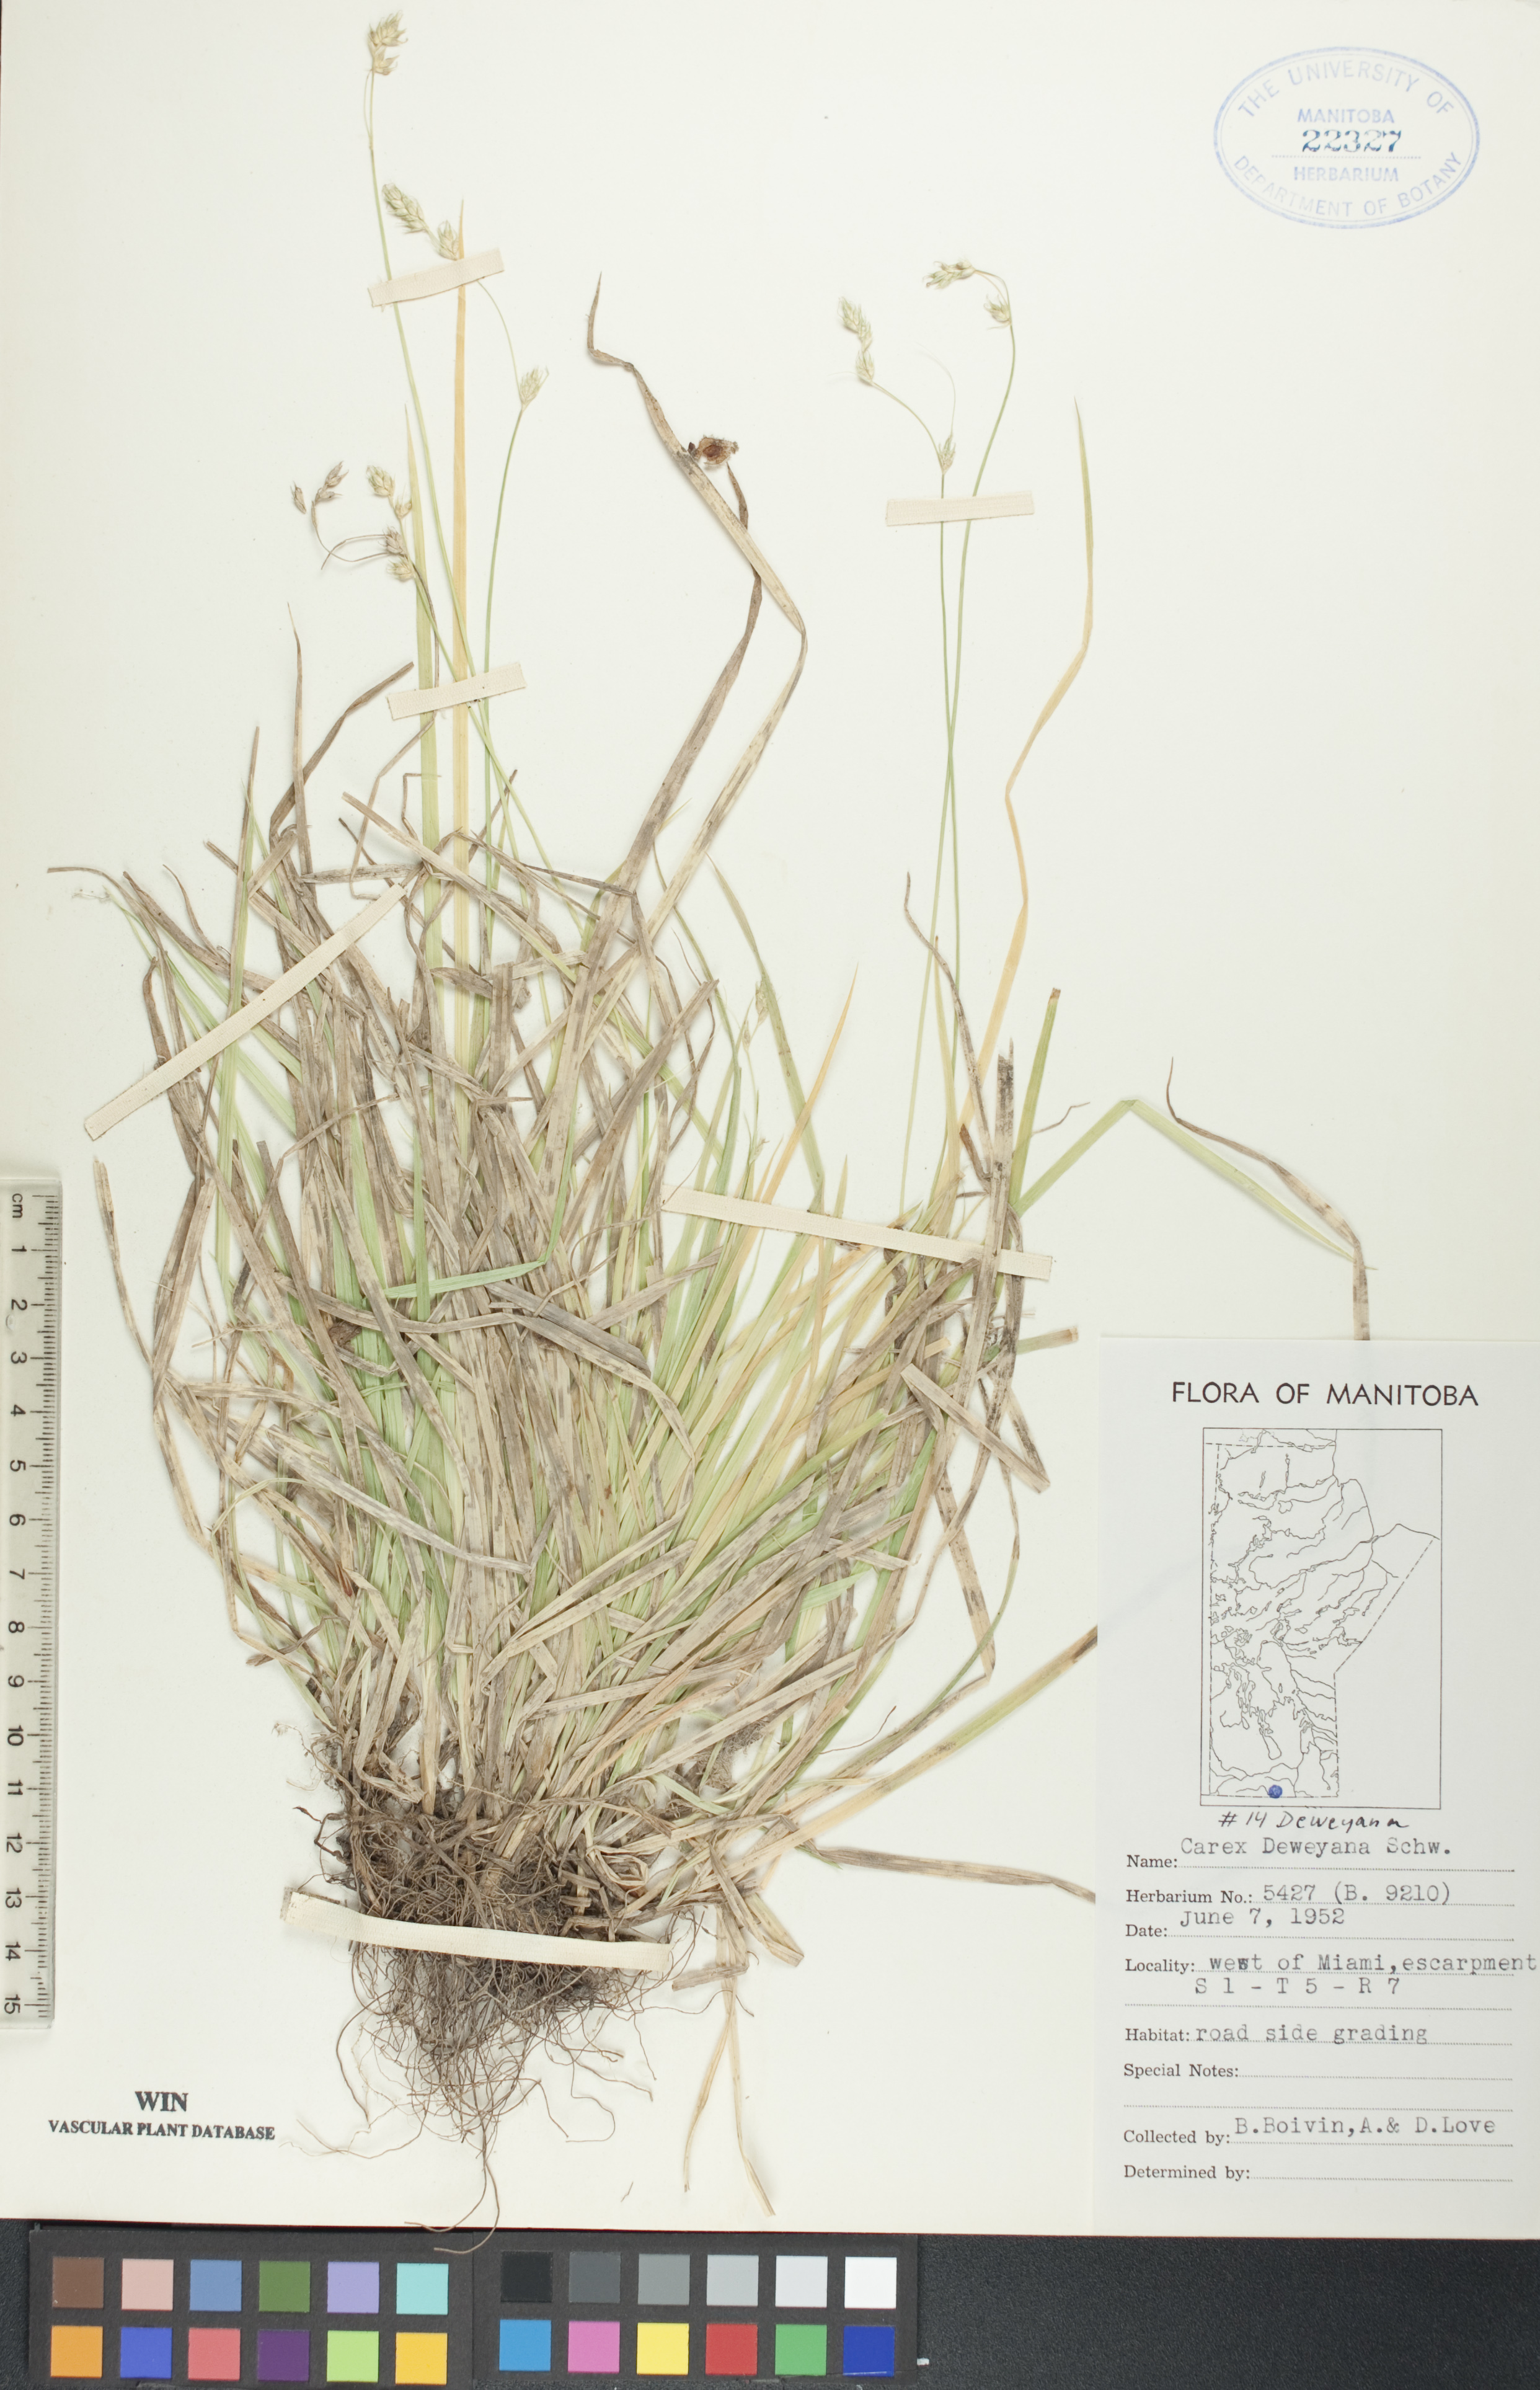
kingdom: Plantae
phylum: Tracheophyta
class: Liliopsida
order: Poales
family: Cyperaceae
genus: Carex
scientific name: Carex deweyana
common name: Dewey's sedge
